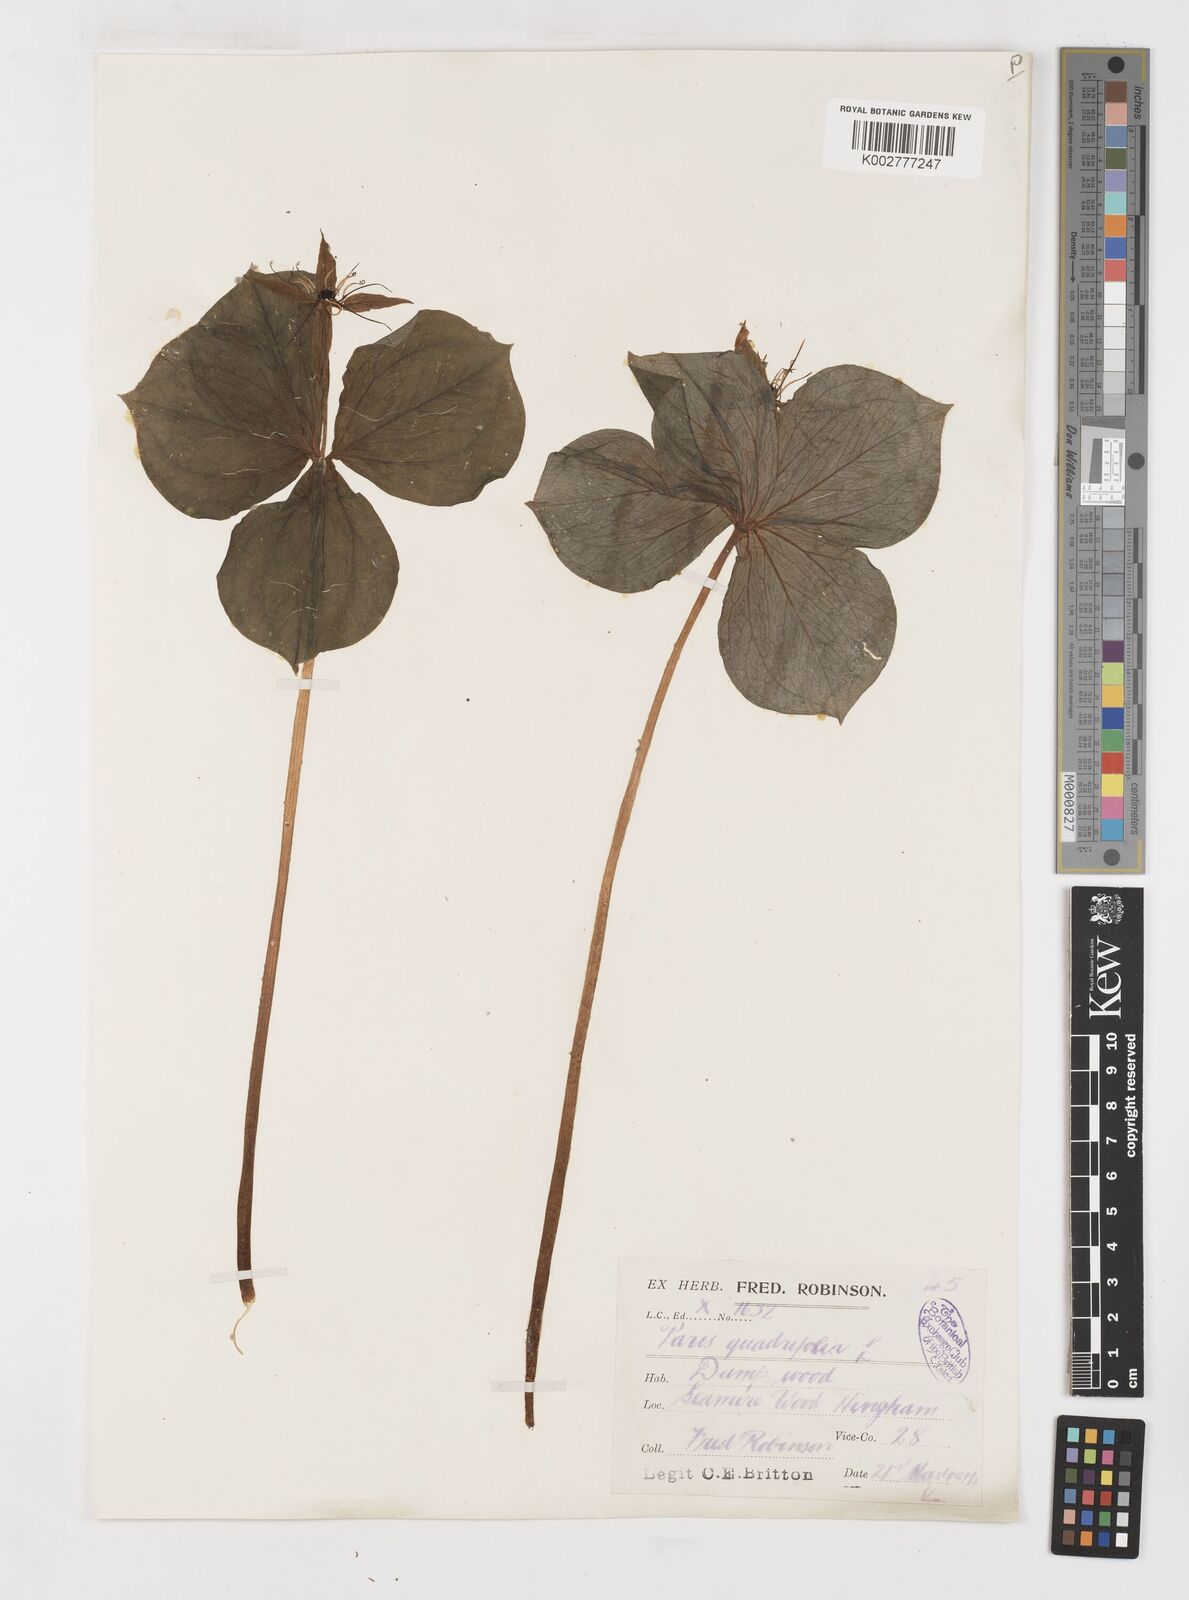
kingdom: Plantae
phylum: Tracheophyta
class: Liliopsida
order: Liliales
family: Melanthiaceae
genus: Paris
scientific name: Paris
